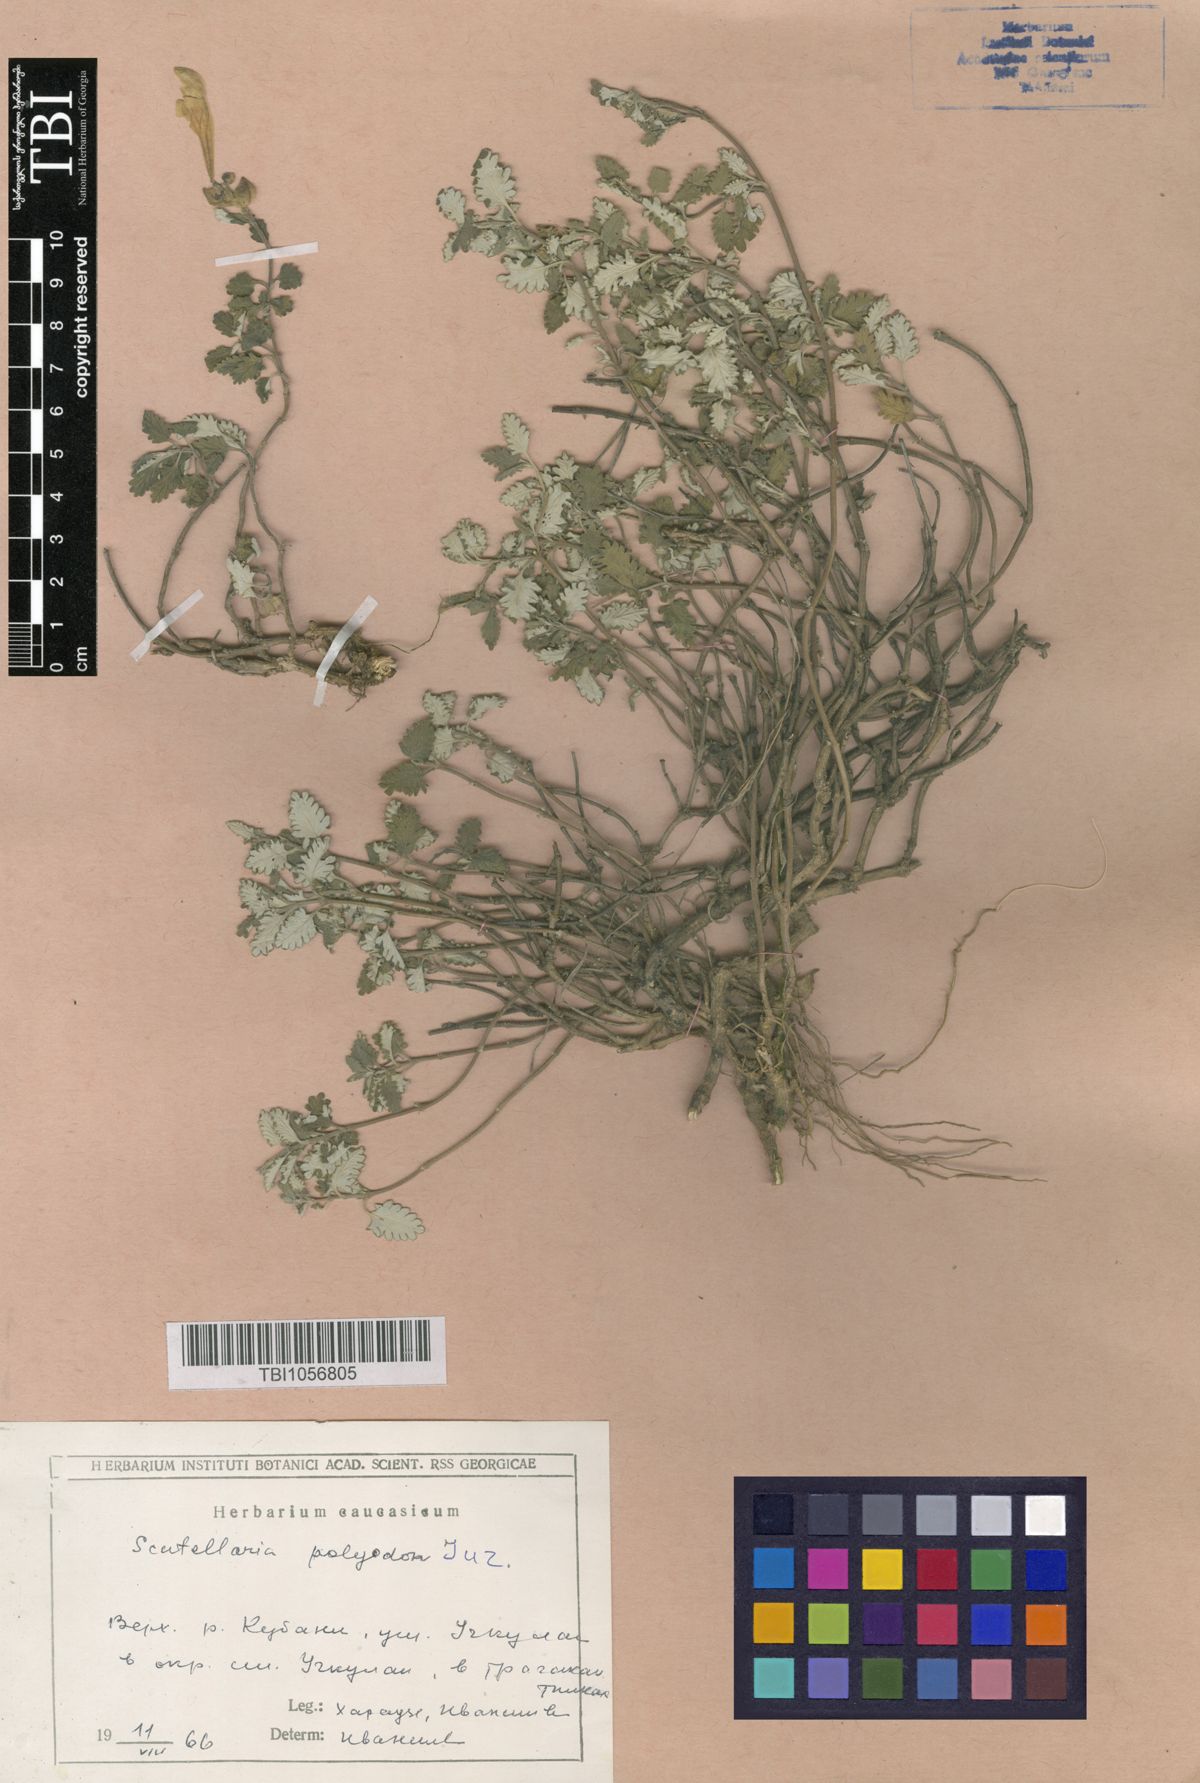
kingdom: Plantae
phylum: Tracheophyta
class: Magnoliopsida
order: Lamiales
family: Lamiaceae
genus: Scutellaria
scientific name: Scutellaria caucasica
